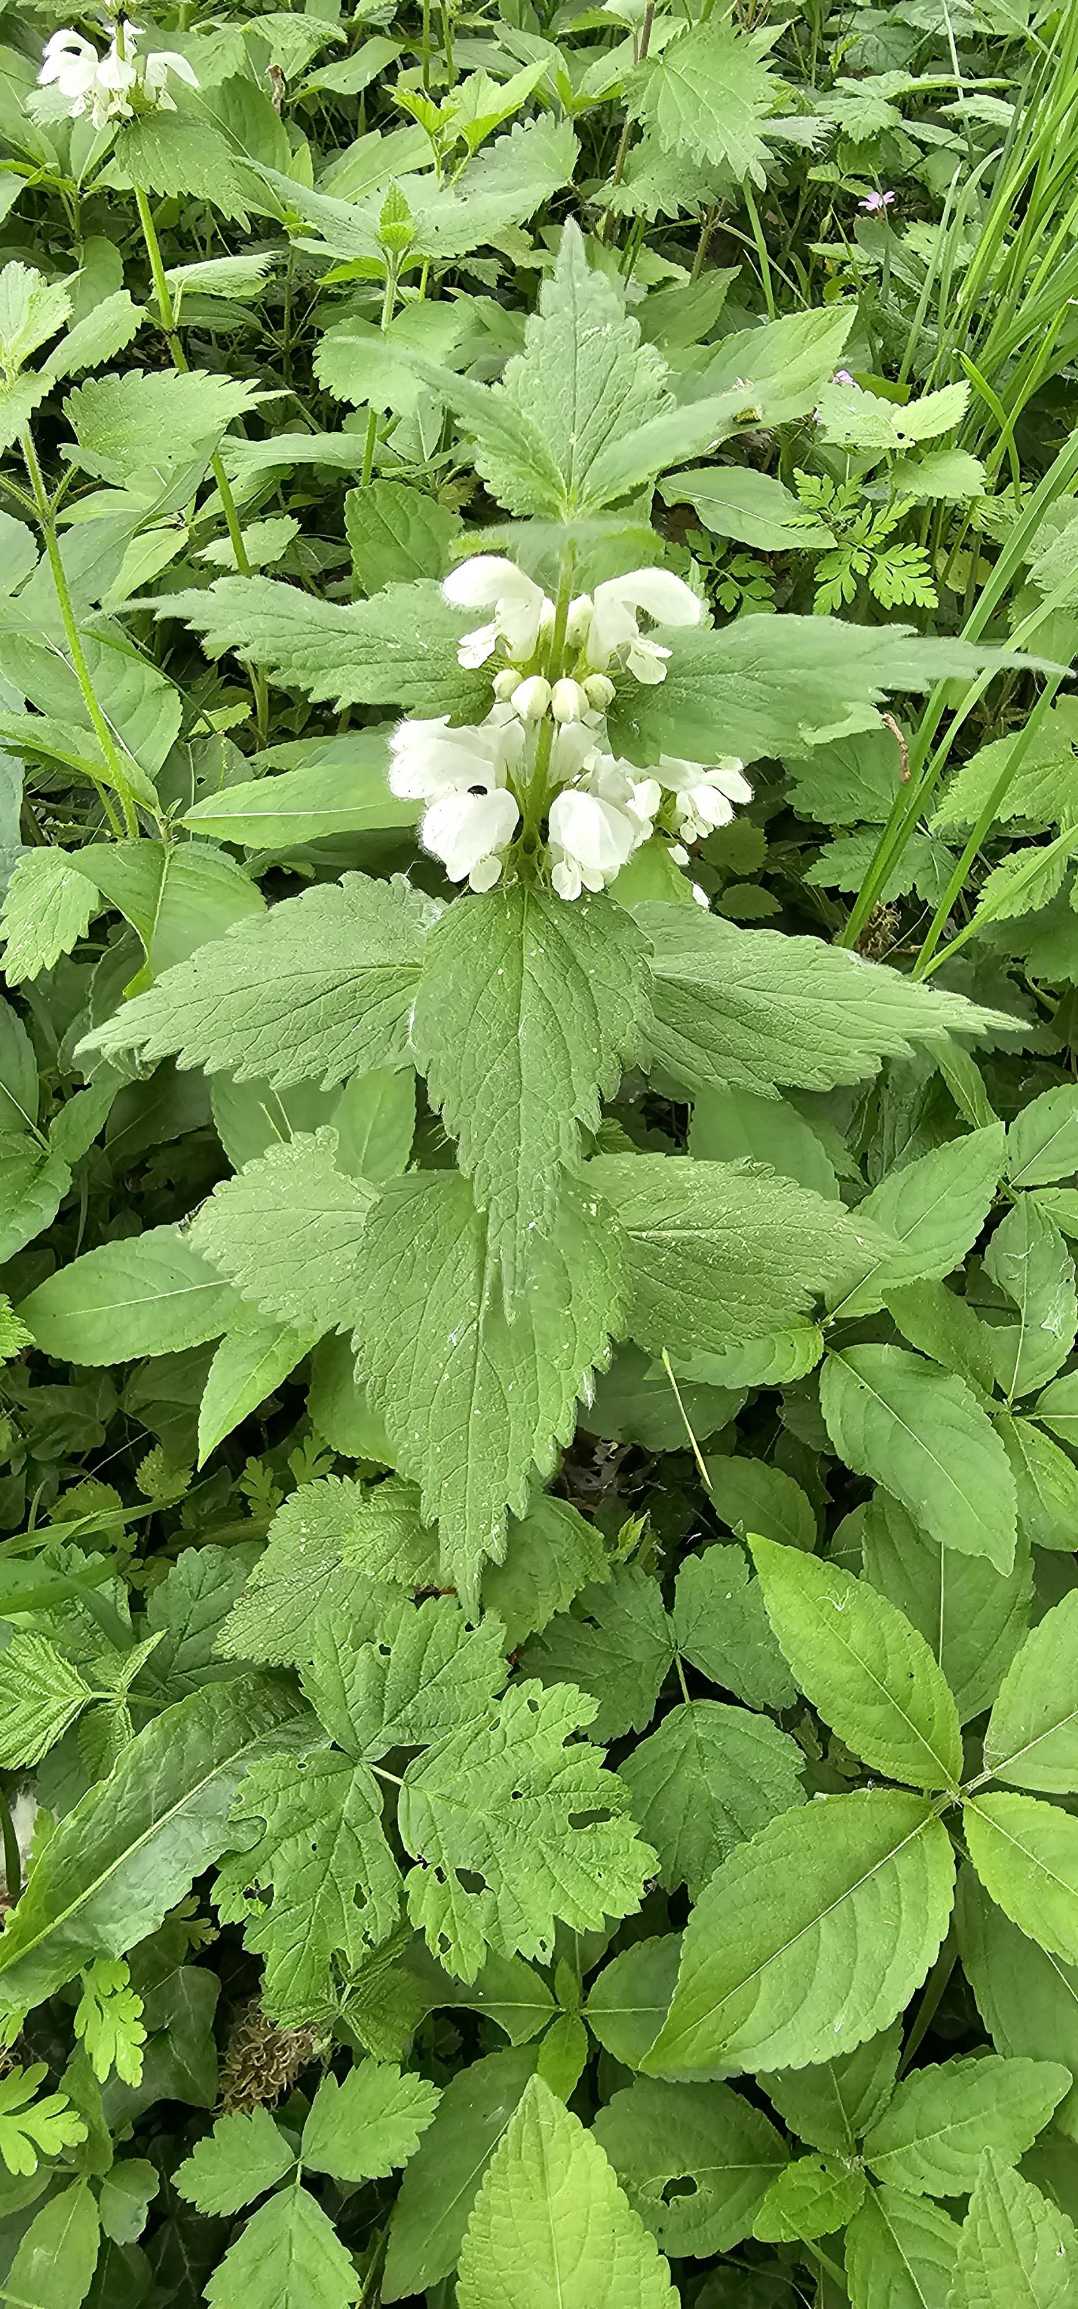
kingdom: Plantae
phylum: Tracheophyta
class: Magnoliopsida
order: Lamiales
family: Lamiaceae
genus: Lamium
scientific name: Lamium album
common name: Døvnælde
